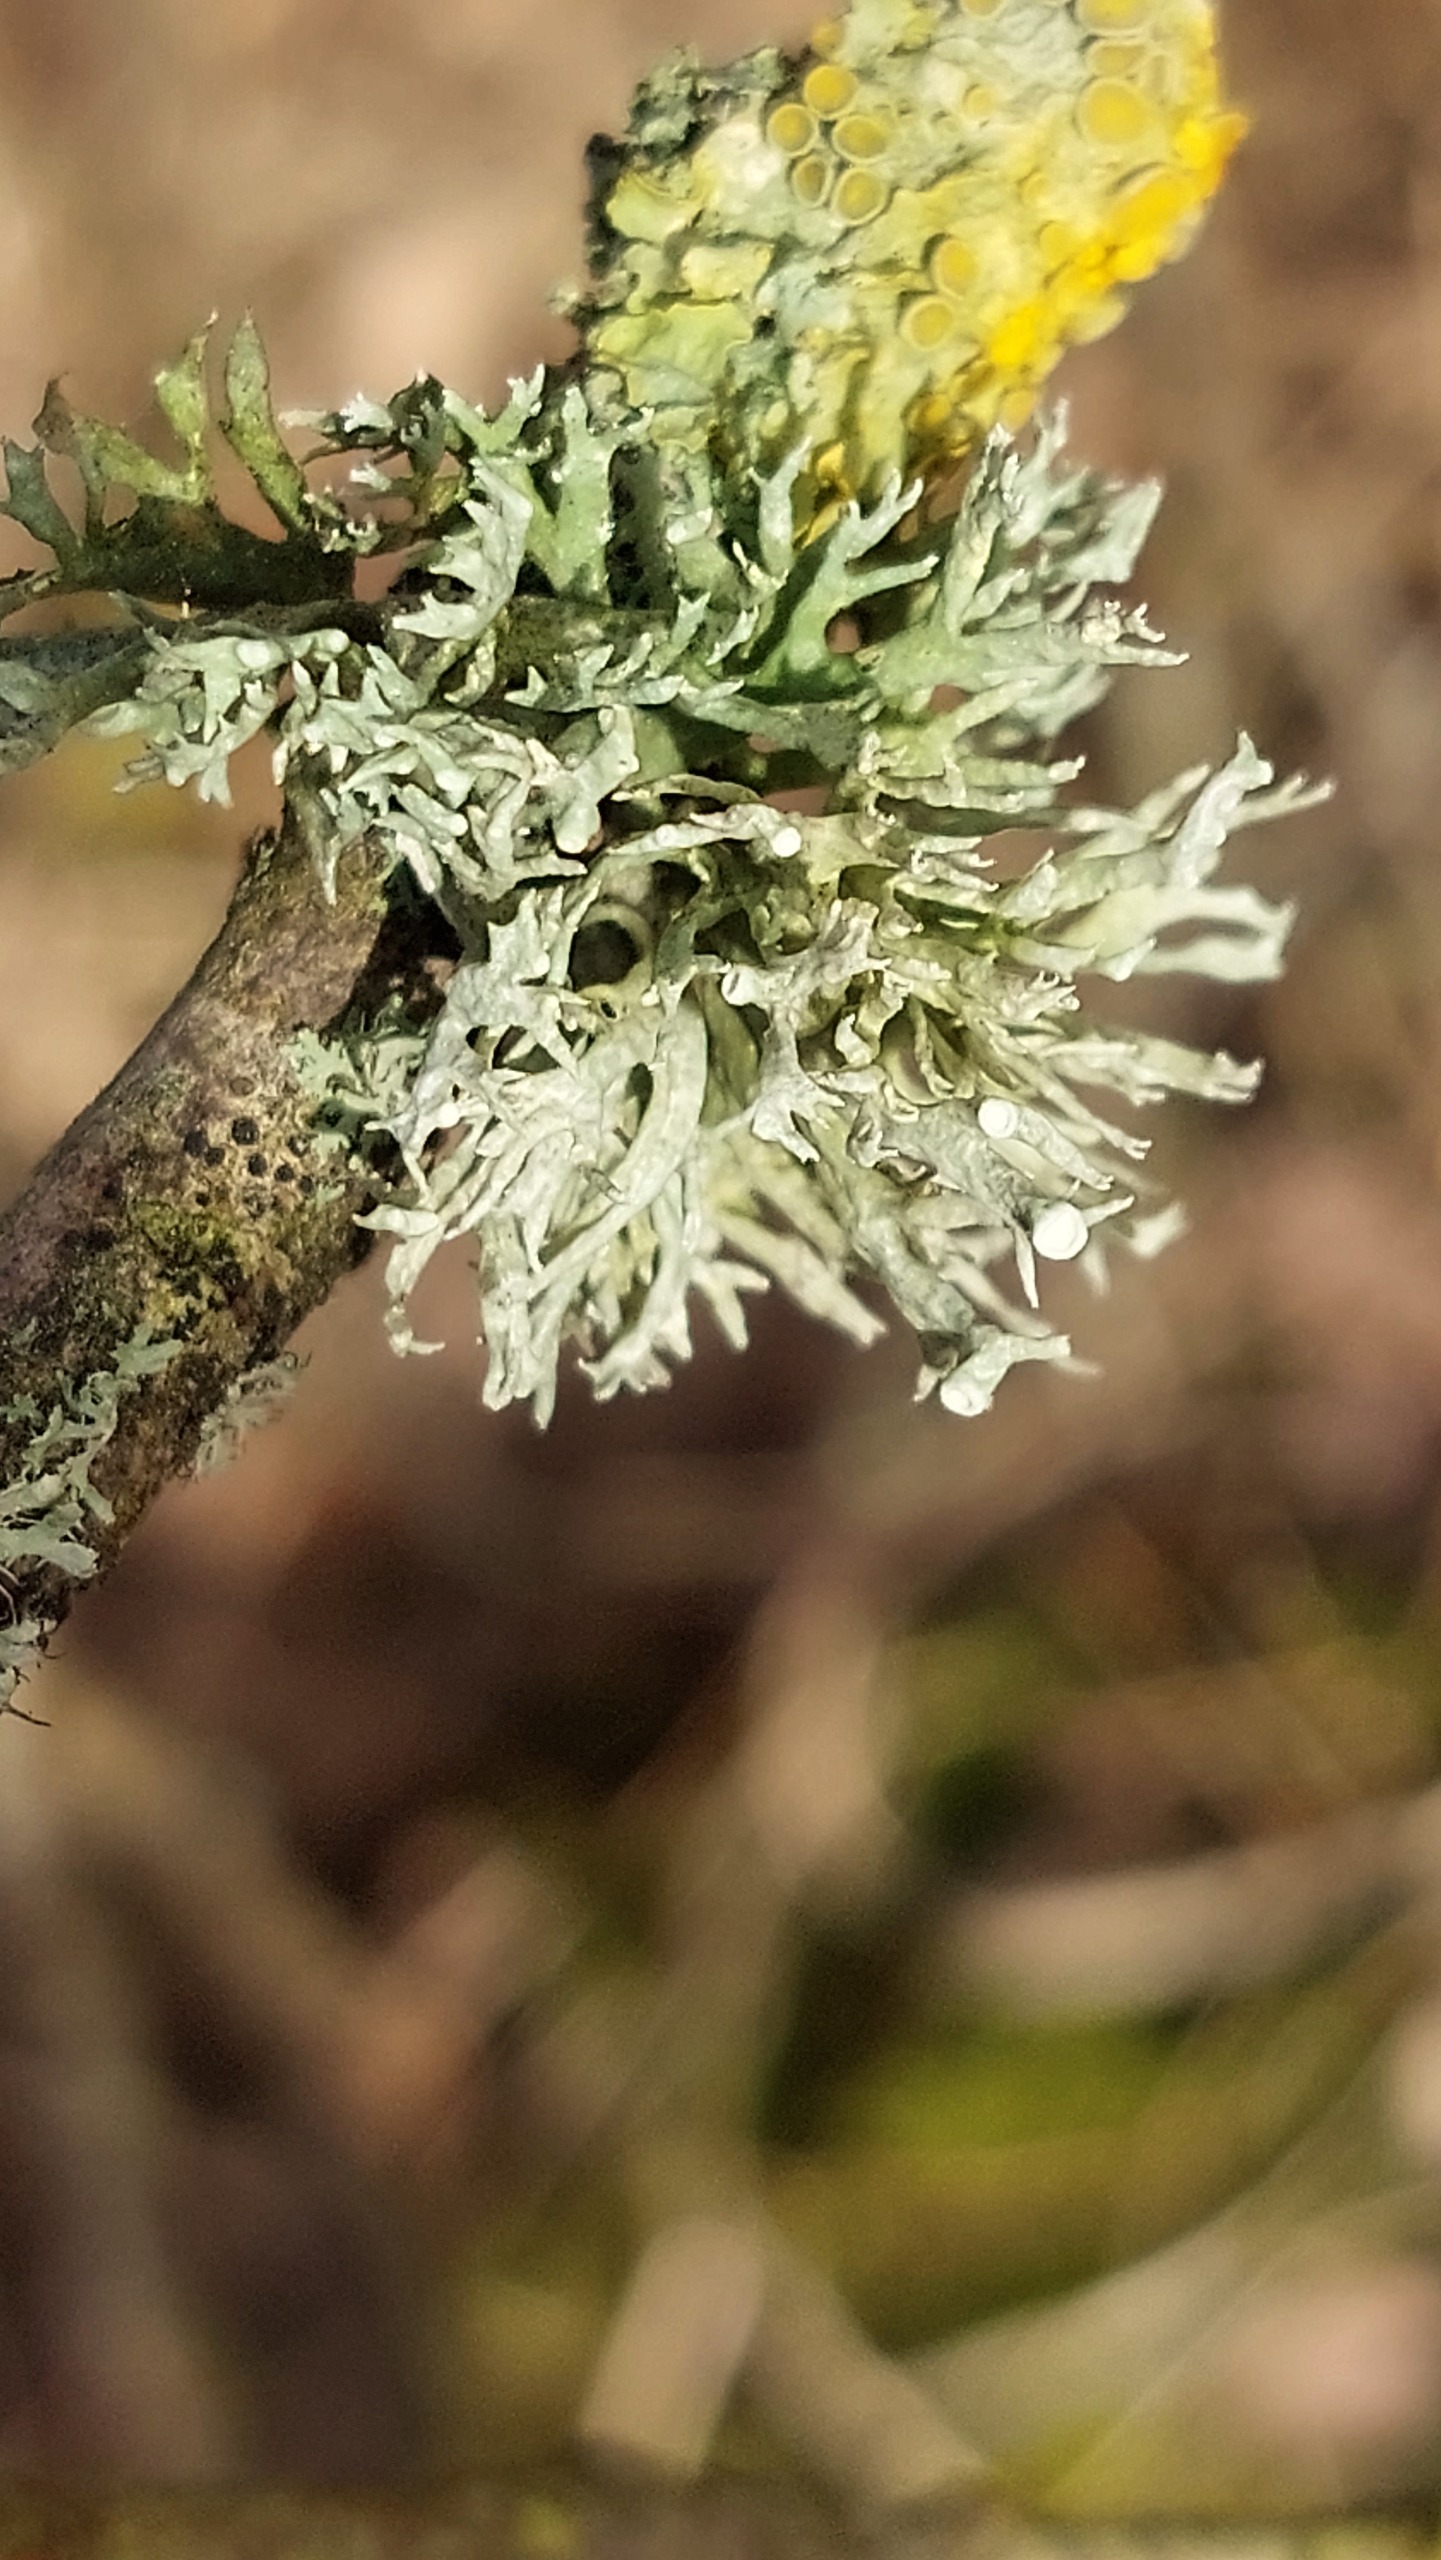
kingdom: Fungi
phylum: Ascomycota
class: Lecanoromycetes
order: Lecanorales
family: Ramalinaceae
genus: Ramalina
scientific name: Ramalina fastigiata
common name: Tue-grenlav
